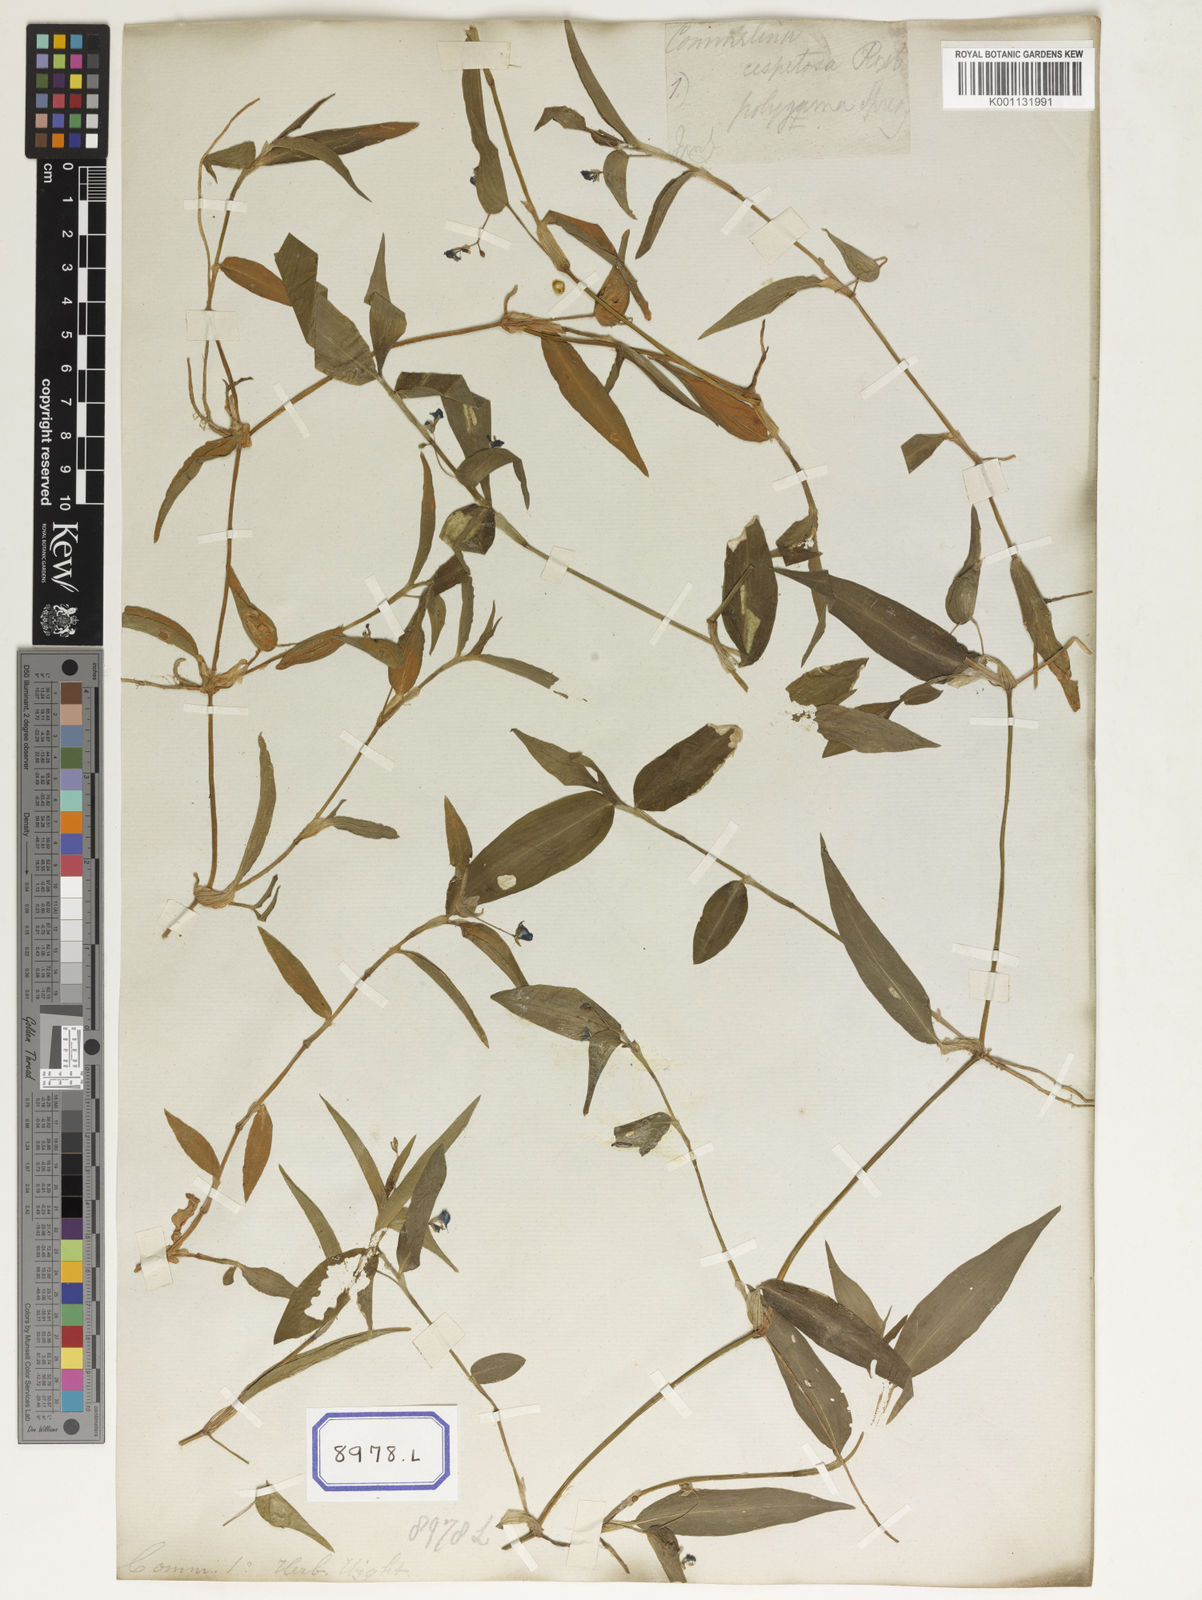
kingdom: Plantae
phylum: Tracheophyta
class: Liliopsida
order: Commelinales
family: Commelinaceae
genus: Commelina
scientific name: Commelina communis
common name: Asiatic dayflower
